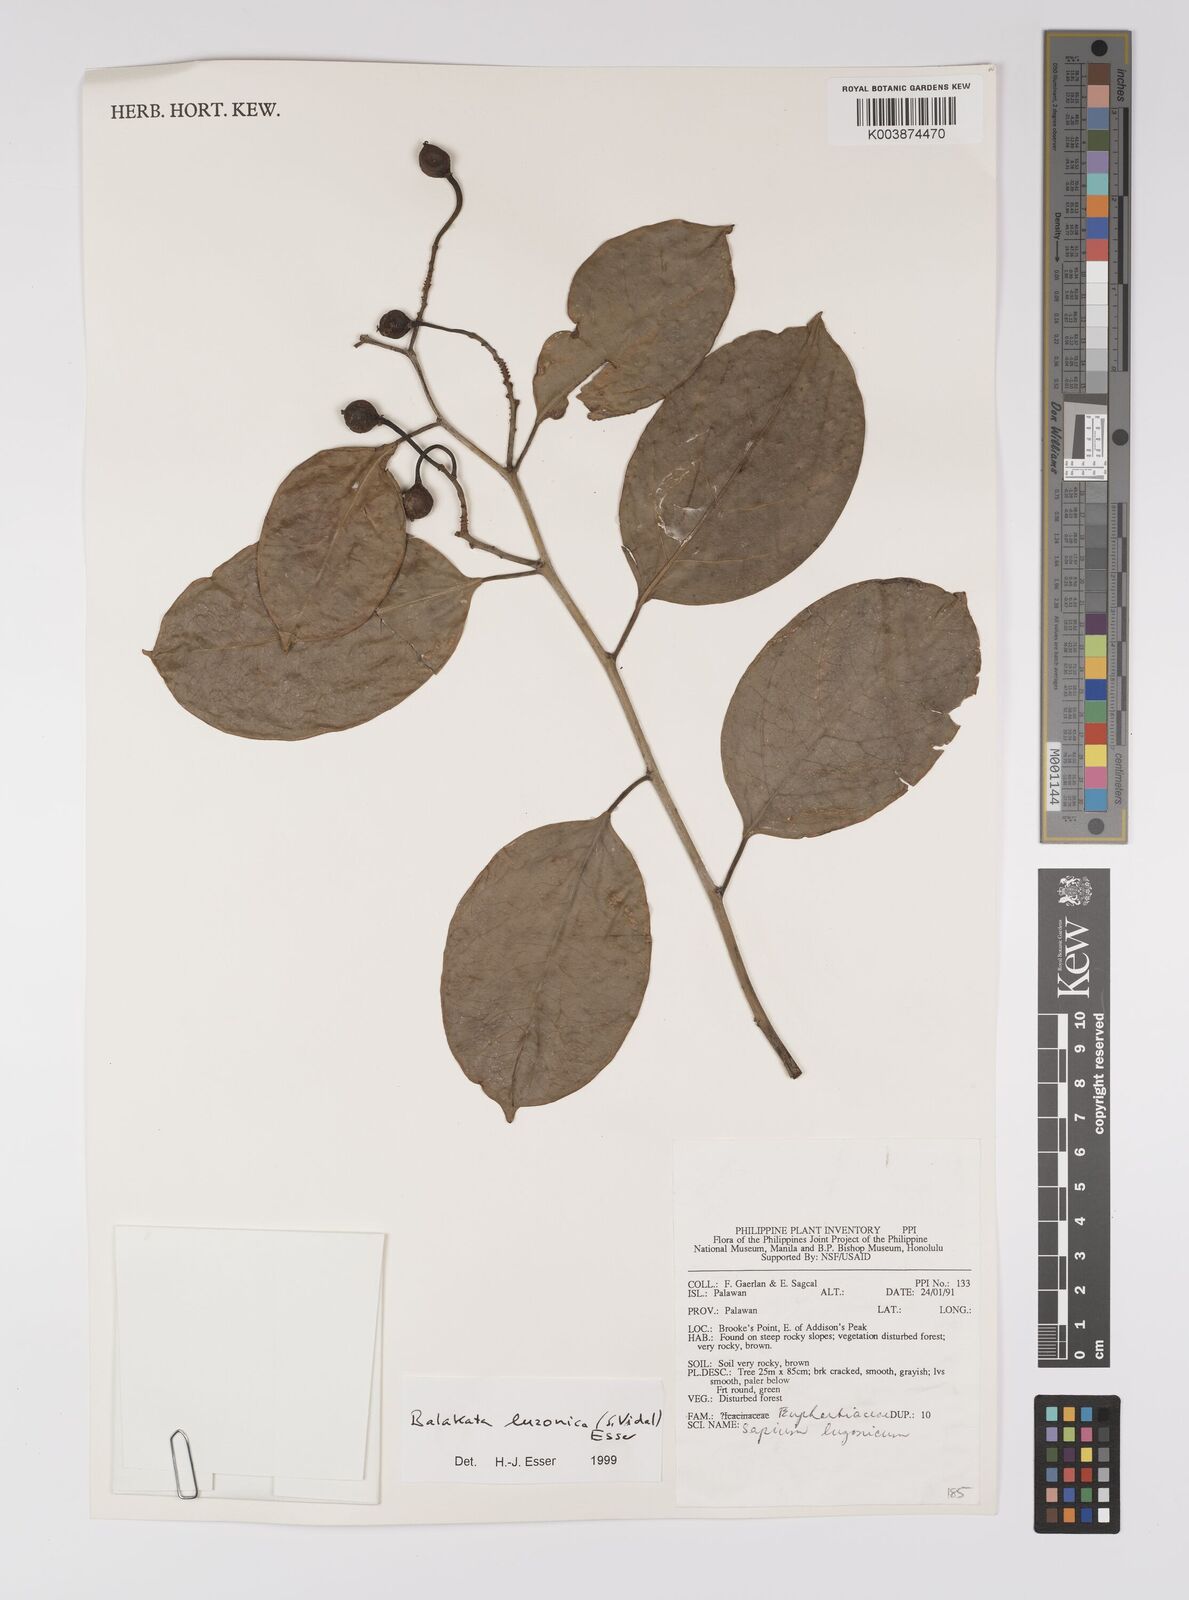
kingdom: Plantae
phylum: Tracheophyta
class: Magnoliopsida
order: Malpighiales
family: Euphorbiaceae
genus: Balakata
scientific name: Balakata luzonica
